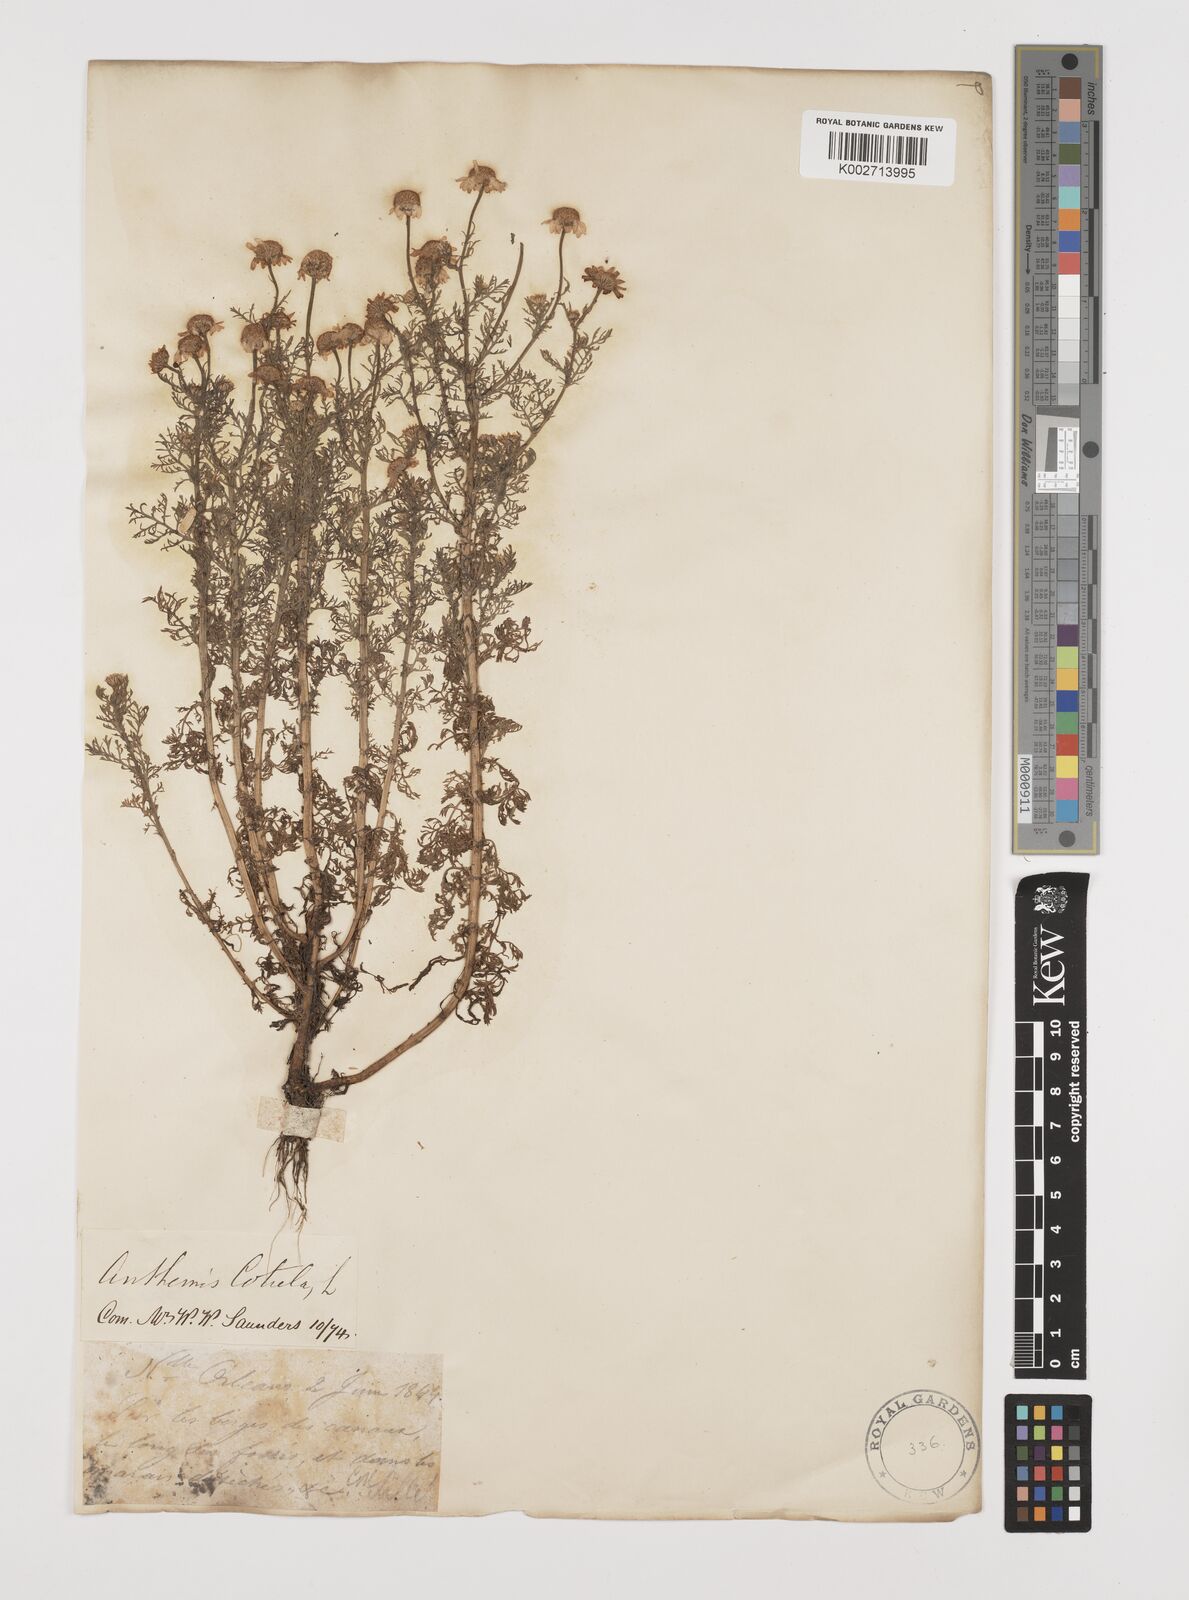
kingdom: Plantae
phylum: Tracheophyta
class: Magnoliopsida
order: Asterales
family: Asteraceae
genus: Anthemis
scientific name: Anthemis cotula
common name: Stinking chamomile
